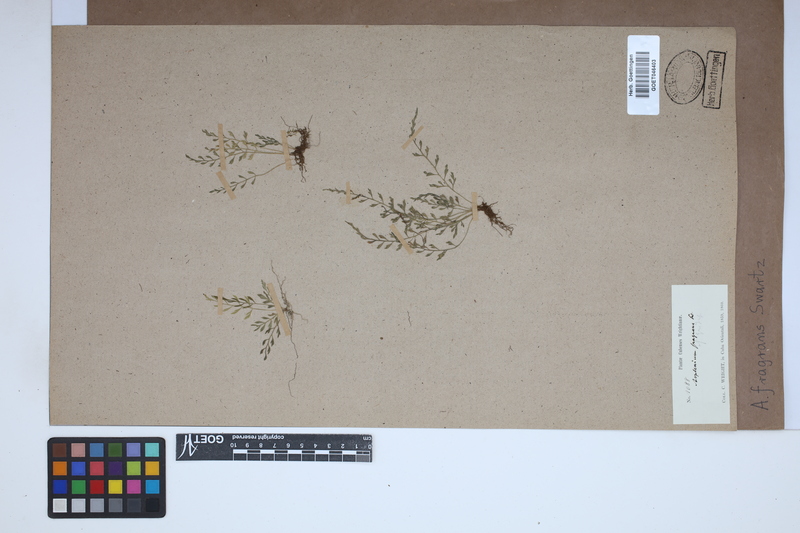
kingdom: Plantae
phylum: Tracheophyta
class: Polypodiopsida
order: Polypodiales
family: Aspleniaceae
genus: Asplenium
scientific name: Asplenium fragrans
